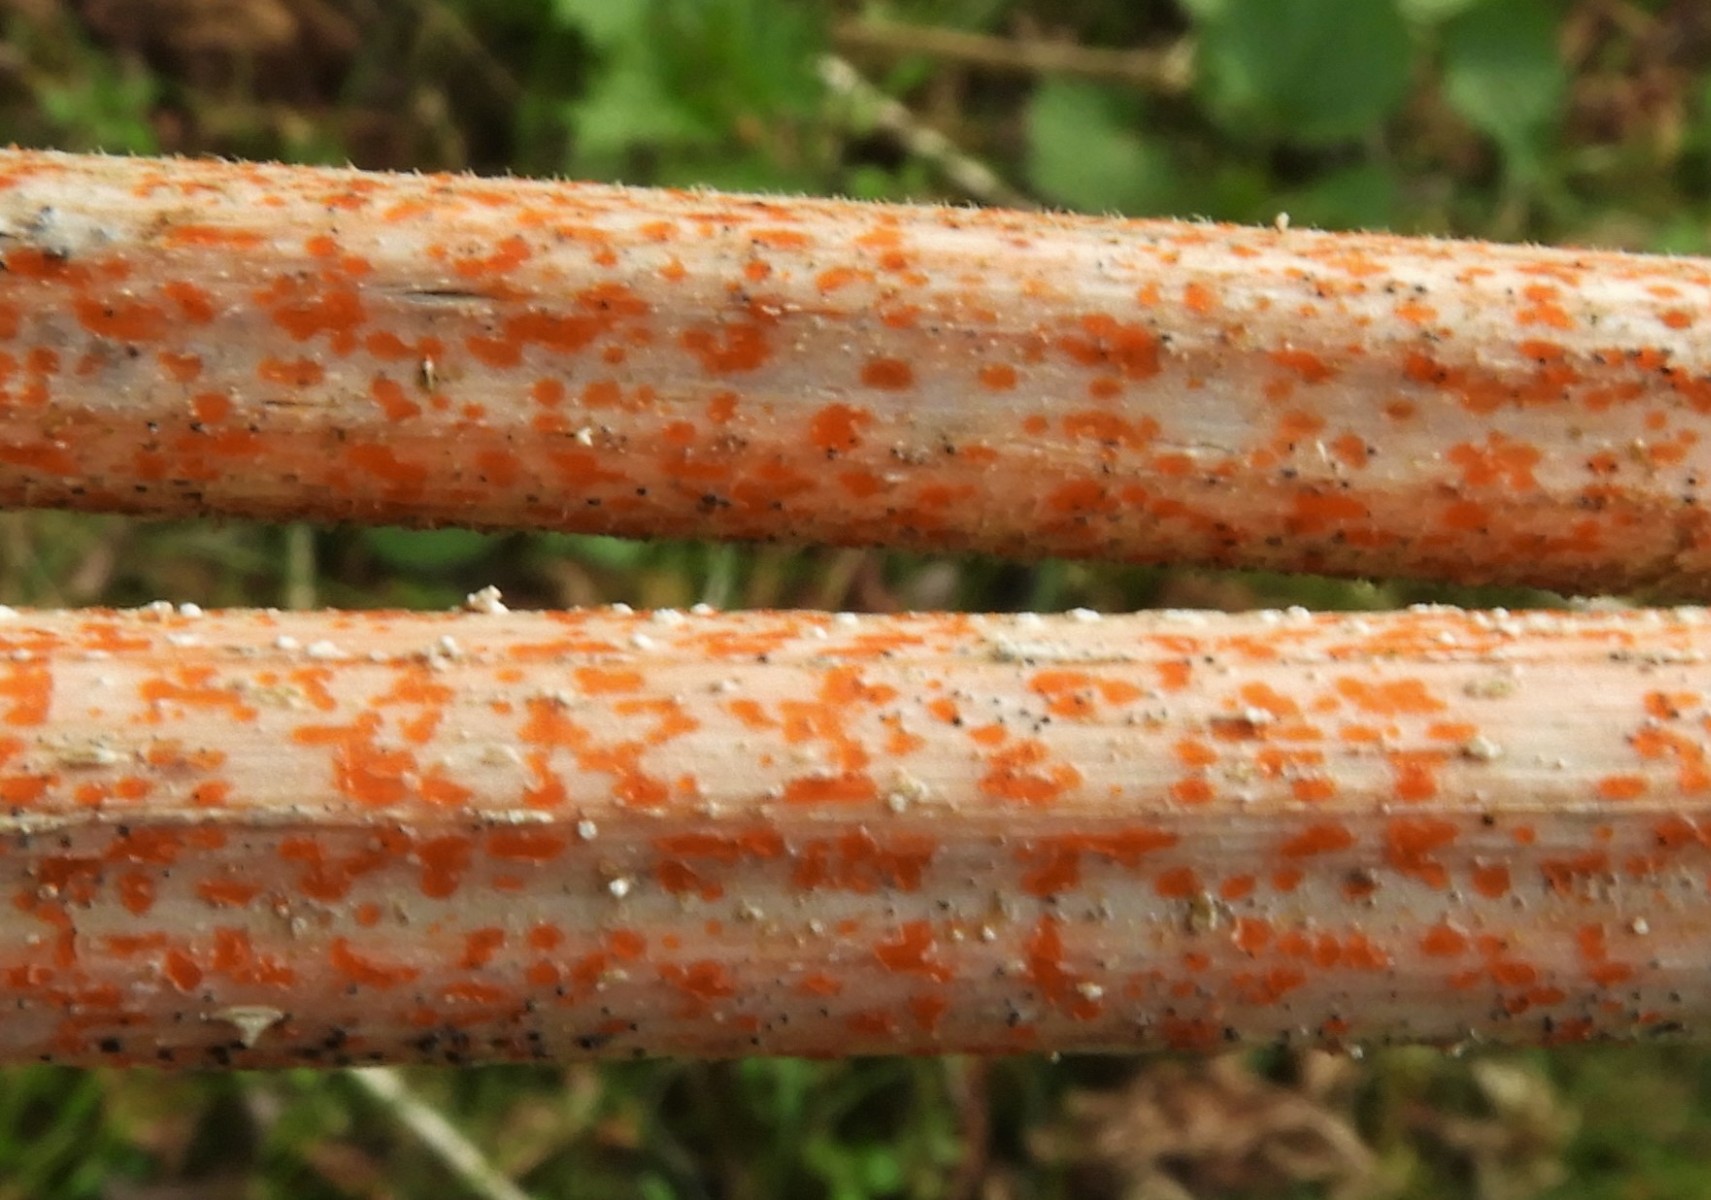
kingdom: Fungi
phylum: Ascomycota
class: Leotiomycetes
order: Helotiales
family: Calloriaceae
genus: Calloria
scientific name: Calloria urticae
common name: nælde-orangeskive
